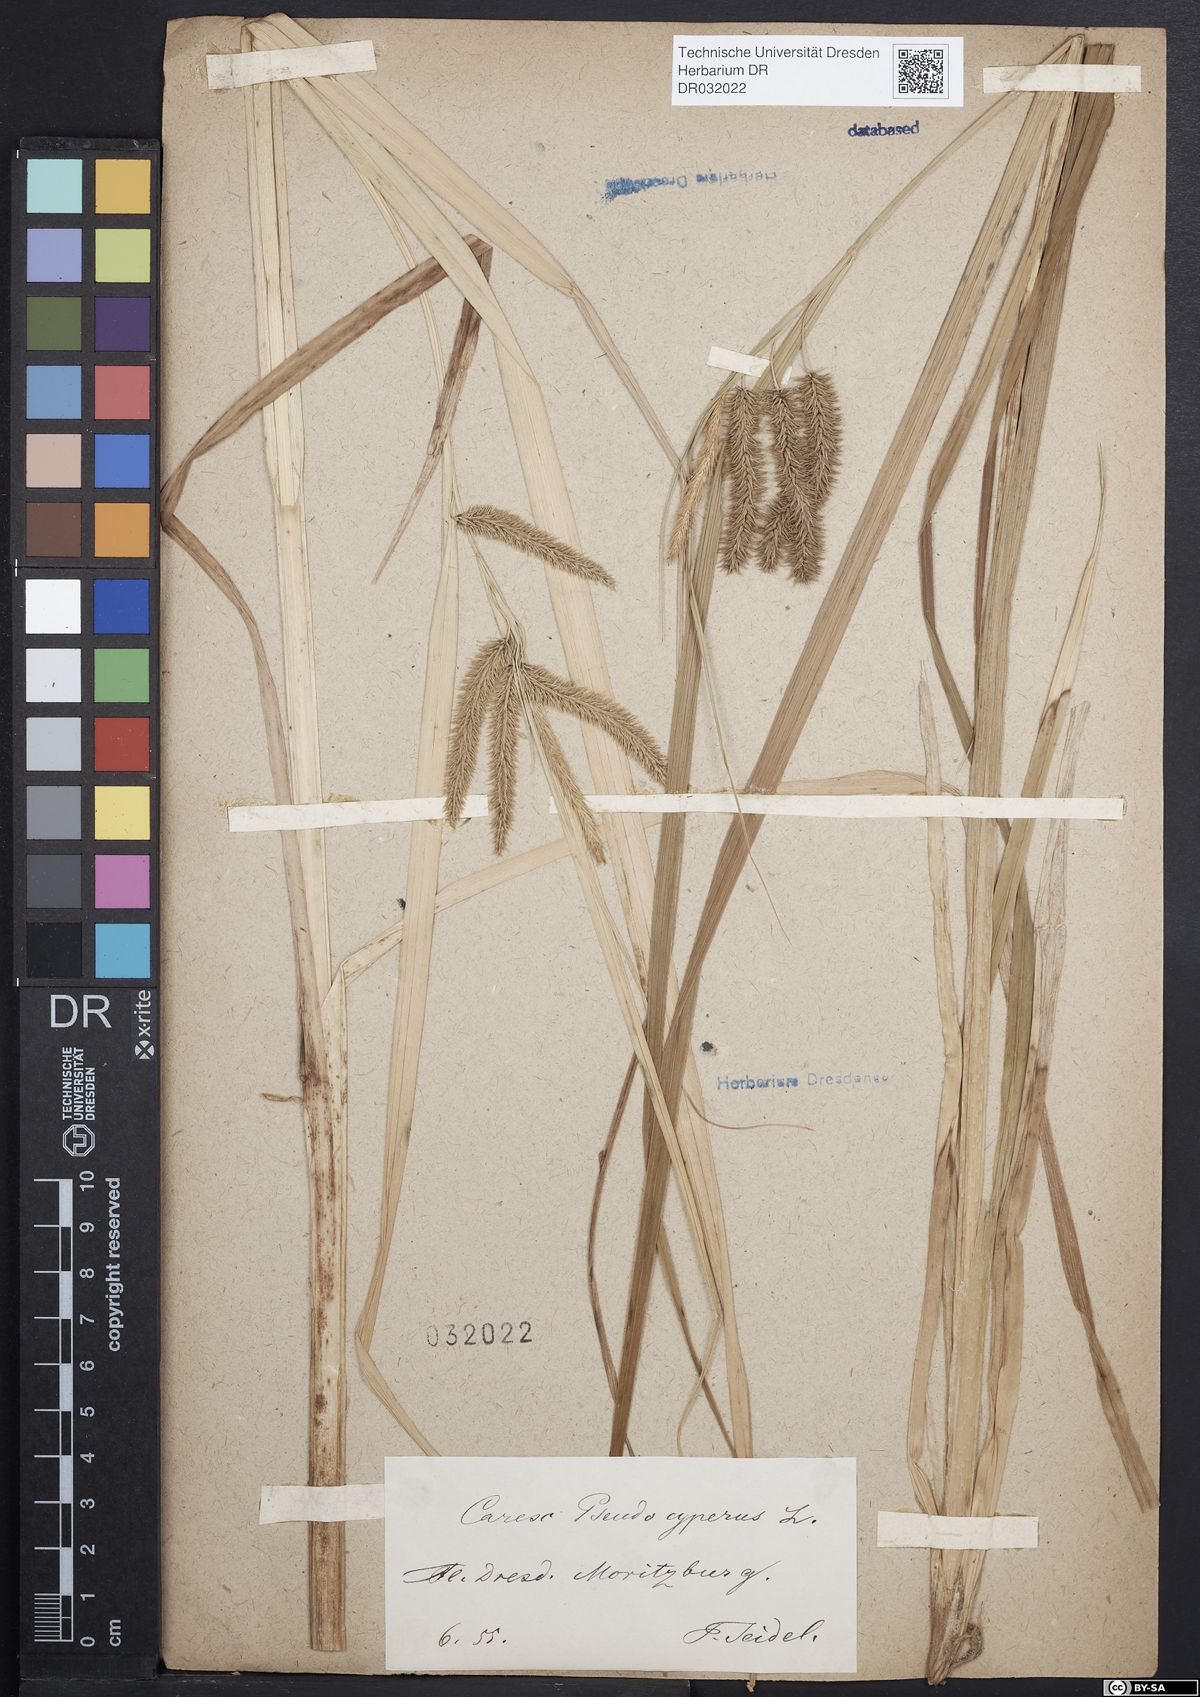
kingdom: Plantae
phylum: Tracheophyta
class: Liliopsida
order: Poales
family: Cyperaceae
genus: Carex
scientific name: Carex pseudocyperus
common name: Cyperus sedge
